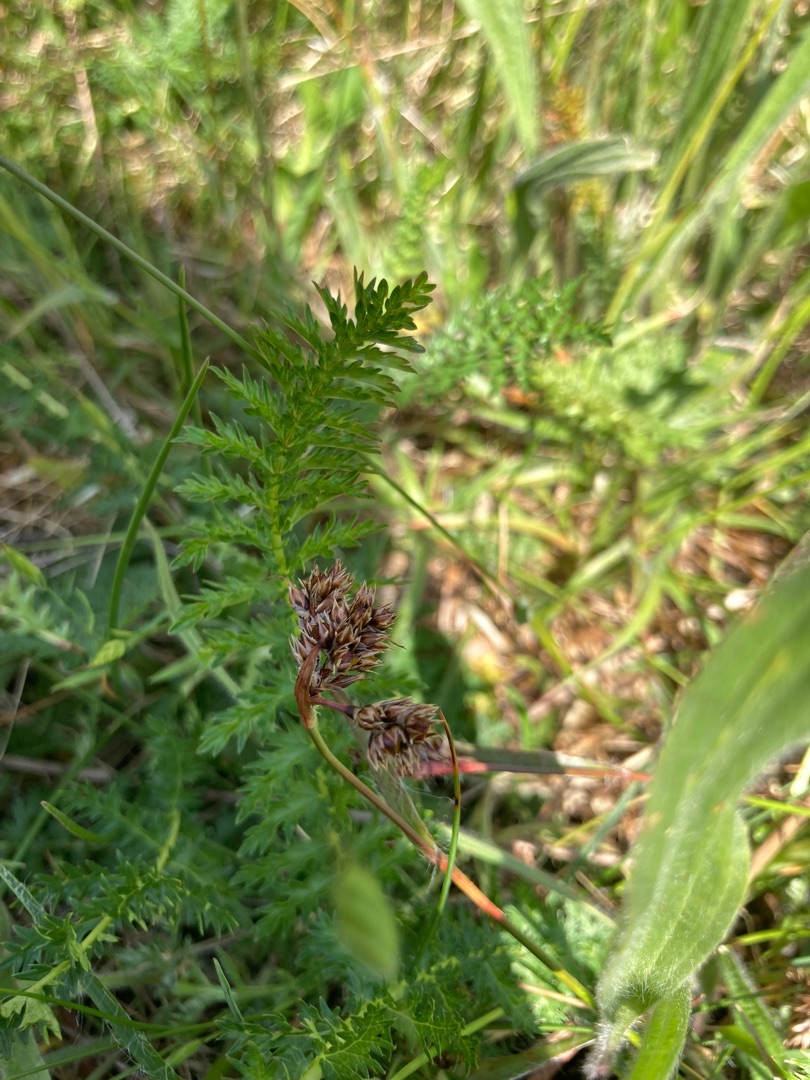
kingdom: Plantae
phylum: Tracheophyta
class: Liliopsida
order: Poales
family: Juncaceae
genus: Luzula
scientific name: Luzula campestris
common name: Mark-frytle
